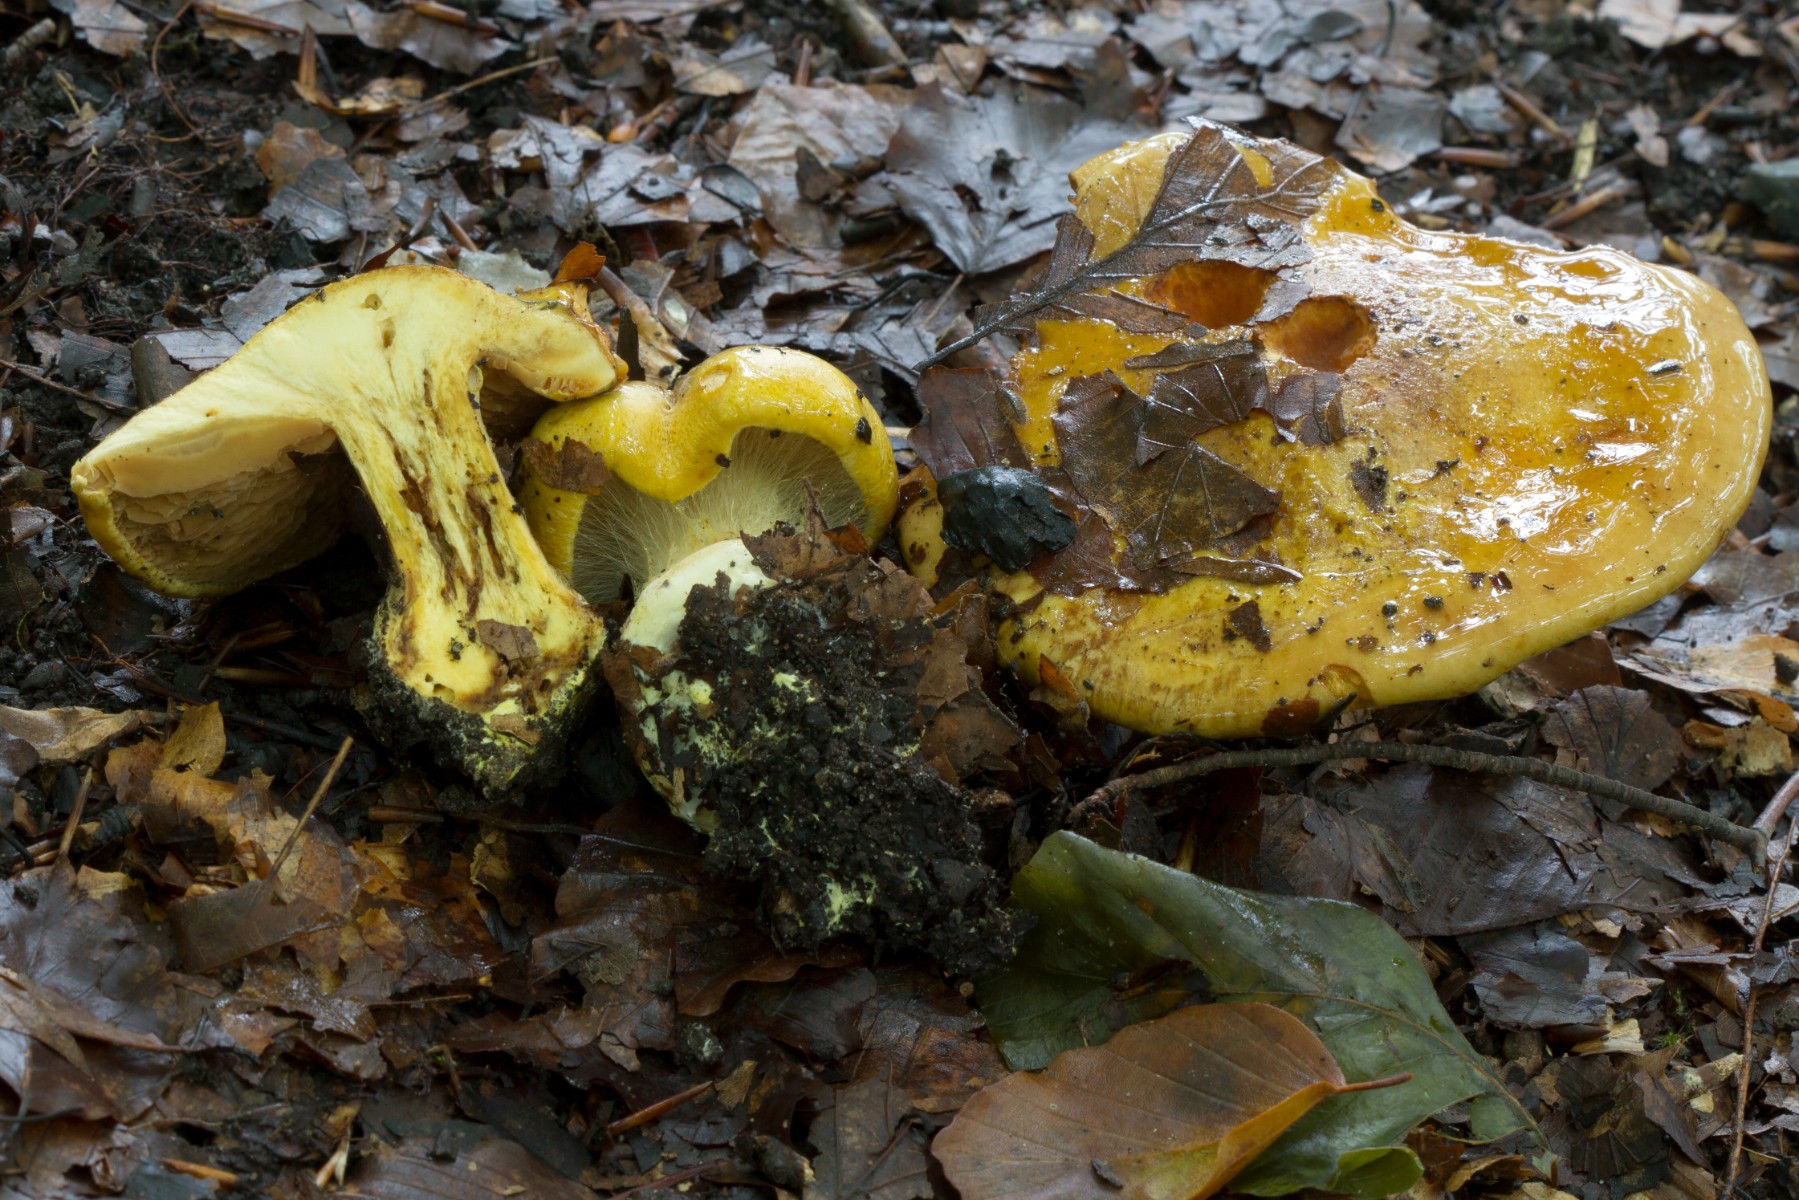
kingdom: Fungi
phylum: Basidiomycota
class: Agaricomycetes
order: Agaricales
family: Cortinariaceae
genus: Calonarius
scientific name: Calonarius alcalinophilus
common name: gyldenbrun slørhat
